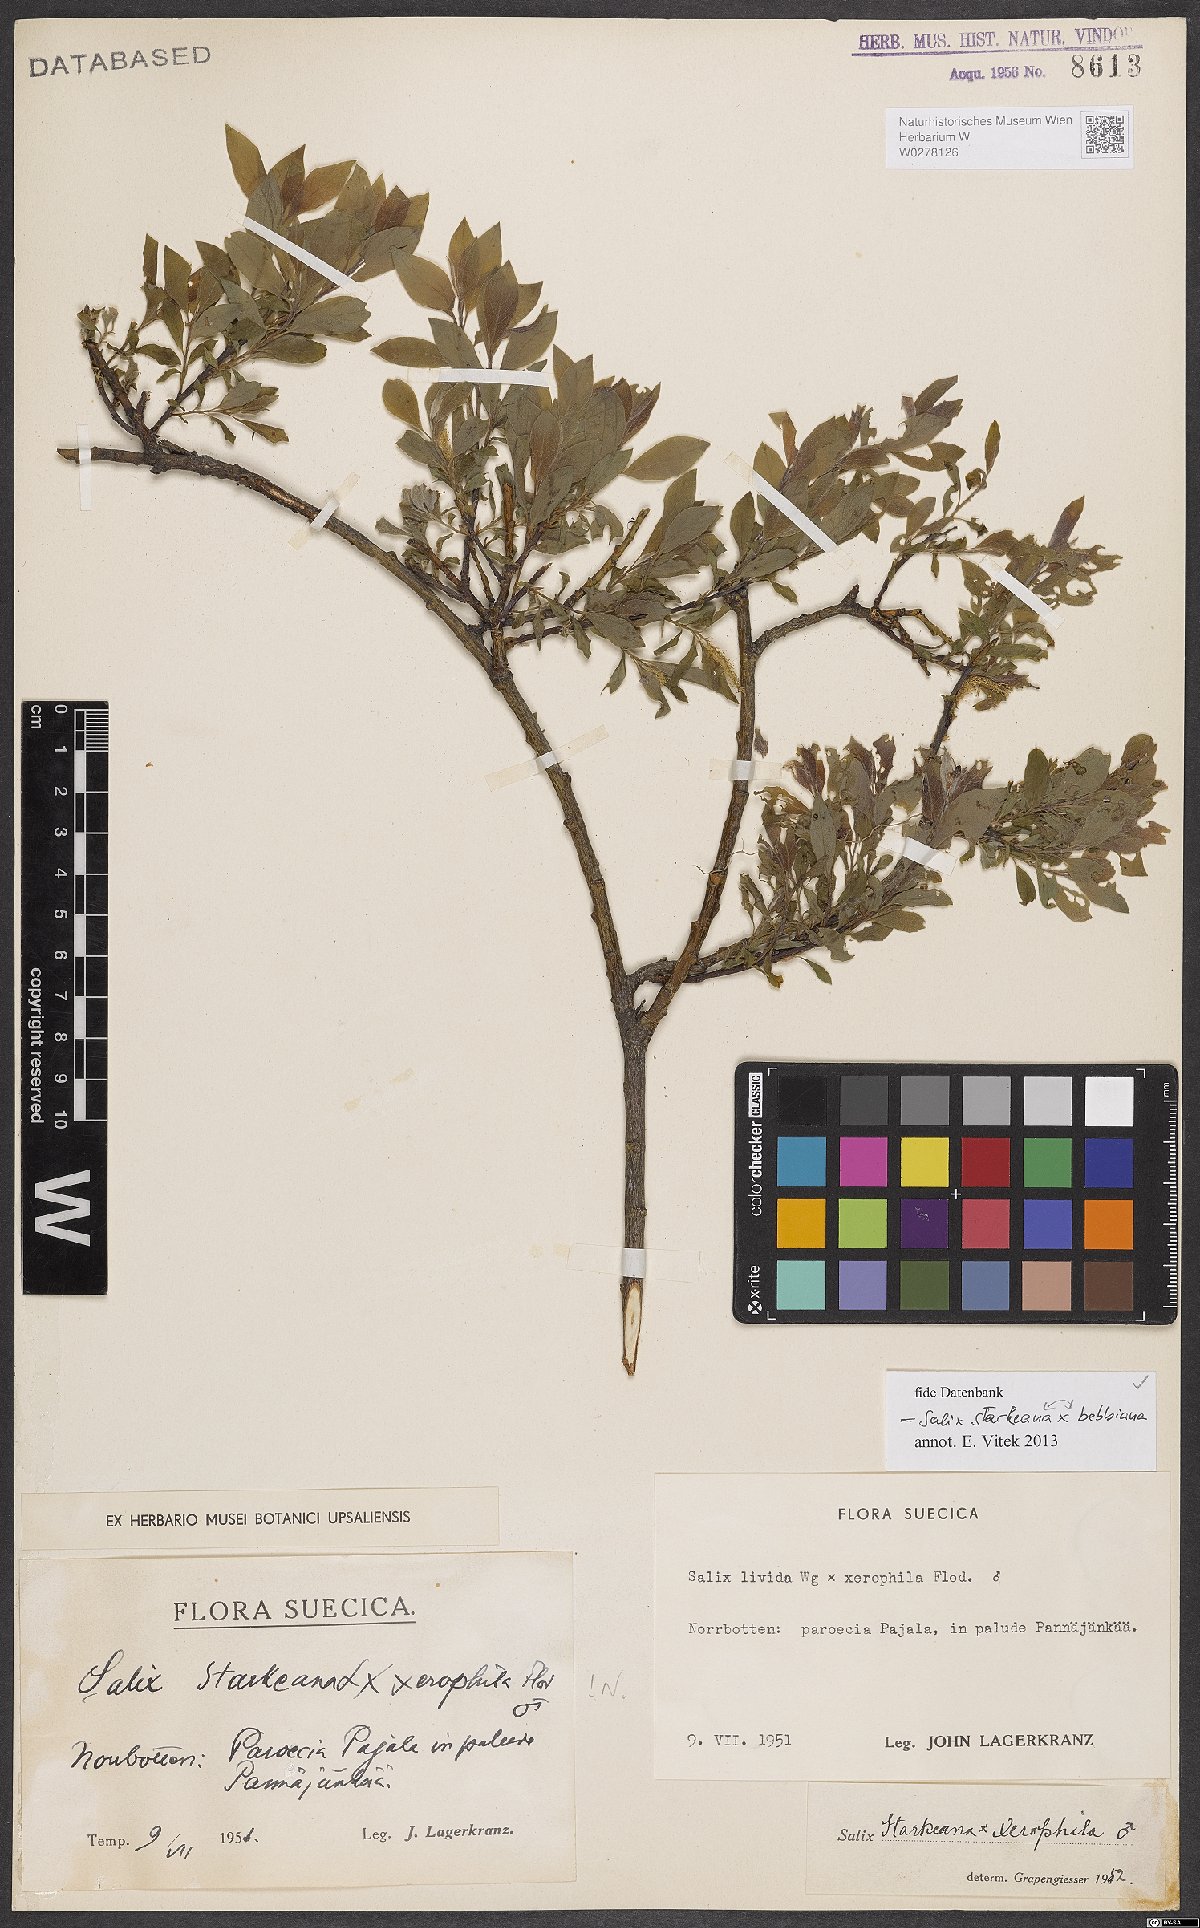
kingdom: Plantae
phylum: Tracheophyta
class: Magnoliopsida
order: Malpighiales
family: Salicaceae
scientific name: Salicaceae
